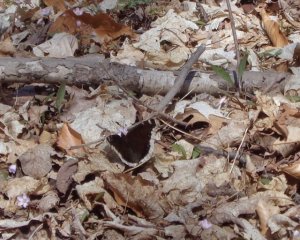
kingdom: Animalia
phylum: Arthropoda
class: Insecta
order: Lepidoptera
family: Nymphalidae
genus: Nymphalis
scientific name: Nymphalis antiopa
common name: Mourning Cloak
